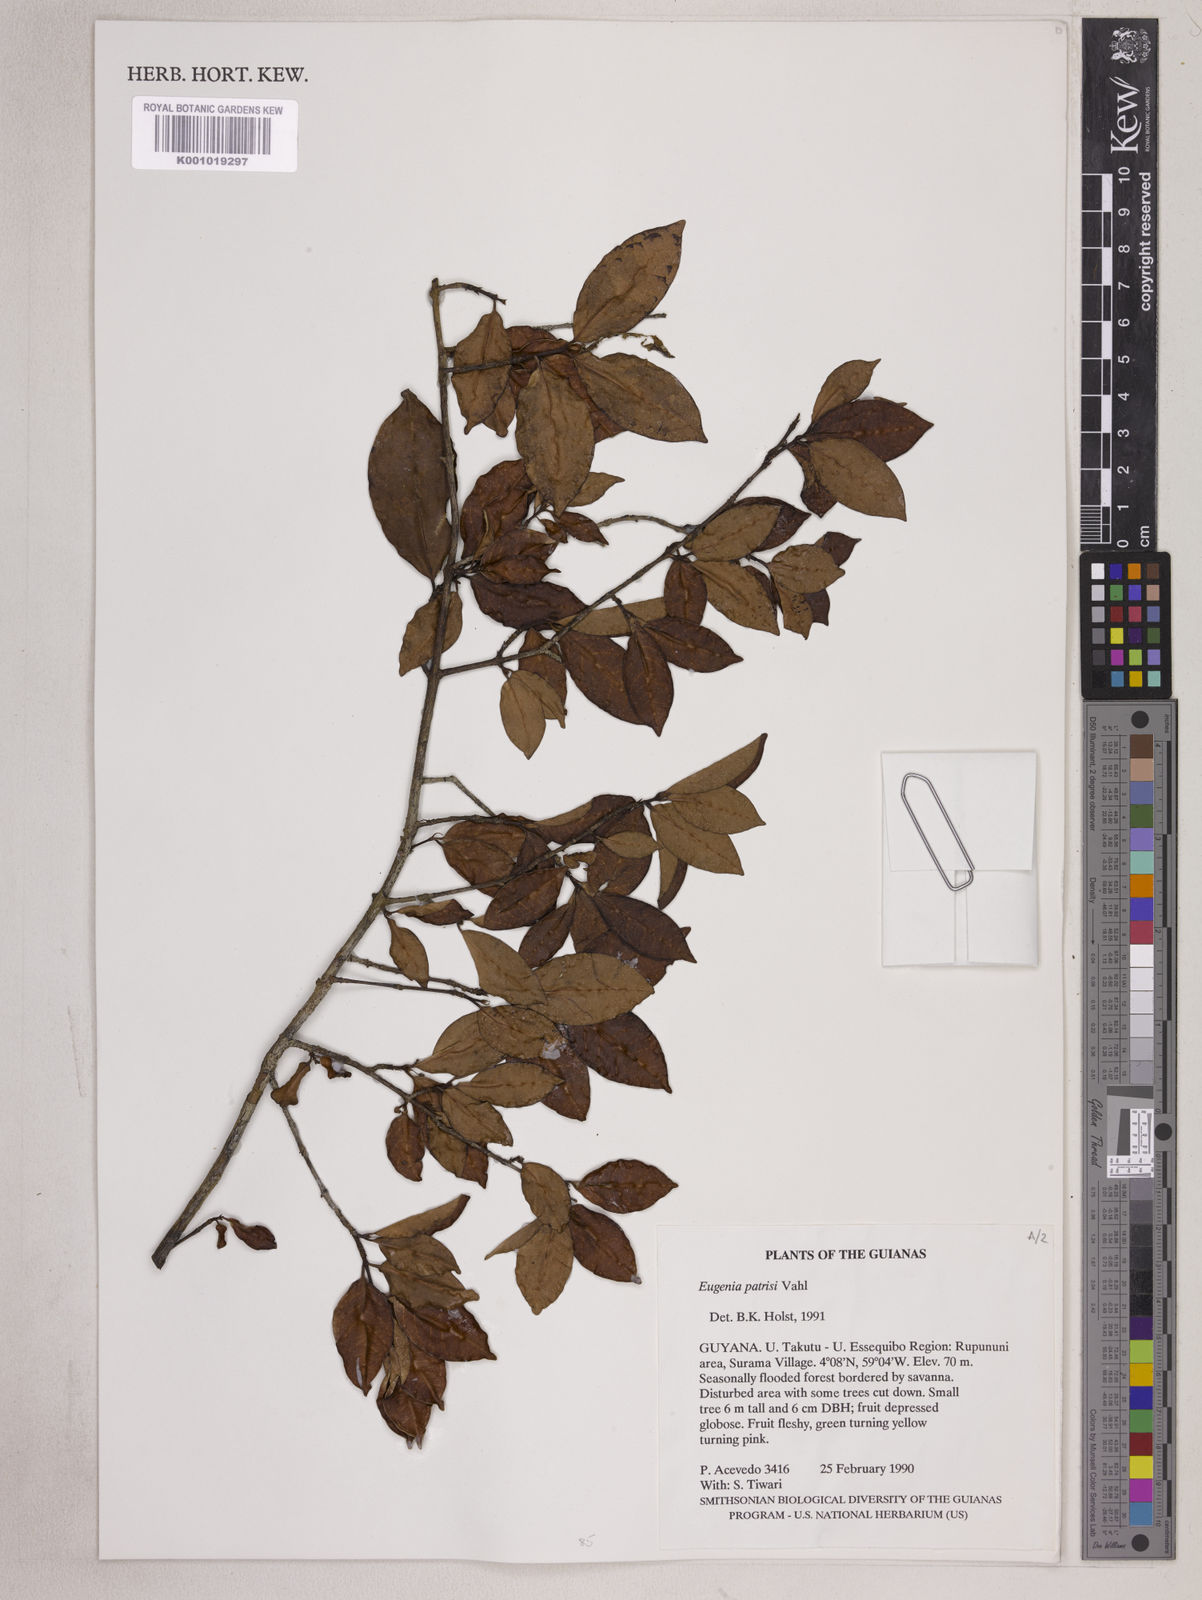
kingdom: Plantae
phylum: Tracheophyta
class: Magnoliopsida
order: Myrtales
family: Myrtaceae
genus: Eugenia
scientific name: Eugenia patrisii
